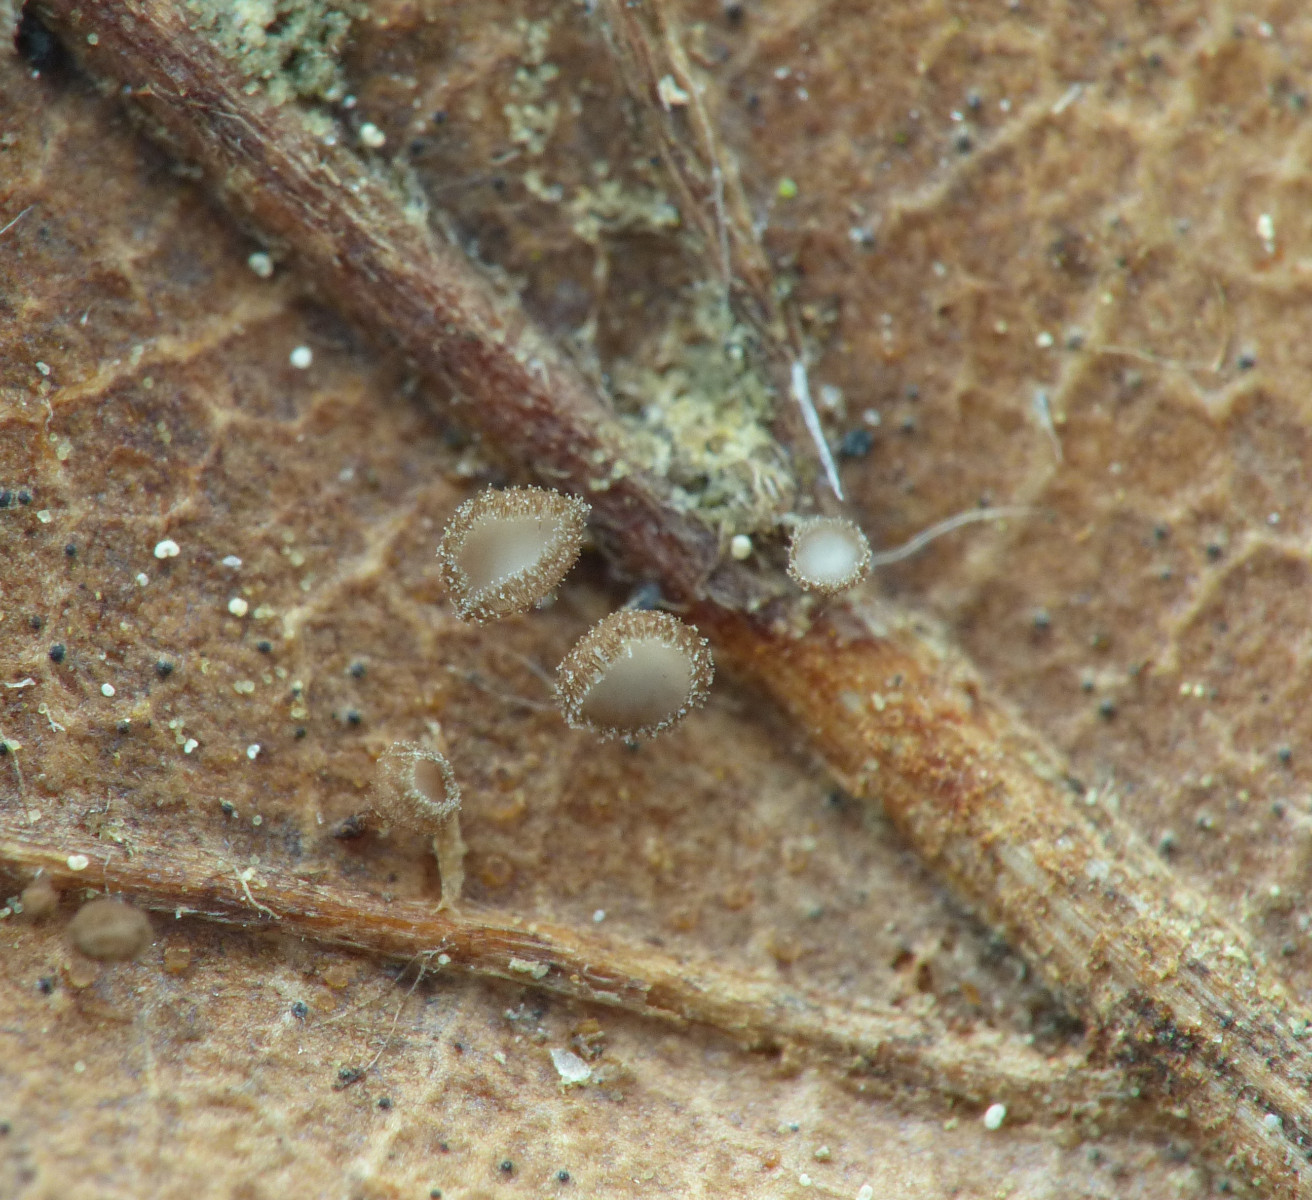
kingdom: Fungi
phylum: Ascomycota
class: Leotiomycetes
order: Helotiales
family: Lachnaceae
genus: Brunnipila
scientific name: Brunnipila fuscescens
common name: bøge-frynseskive
